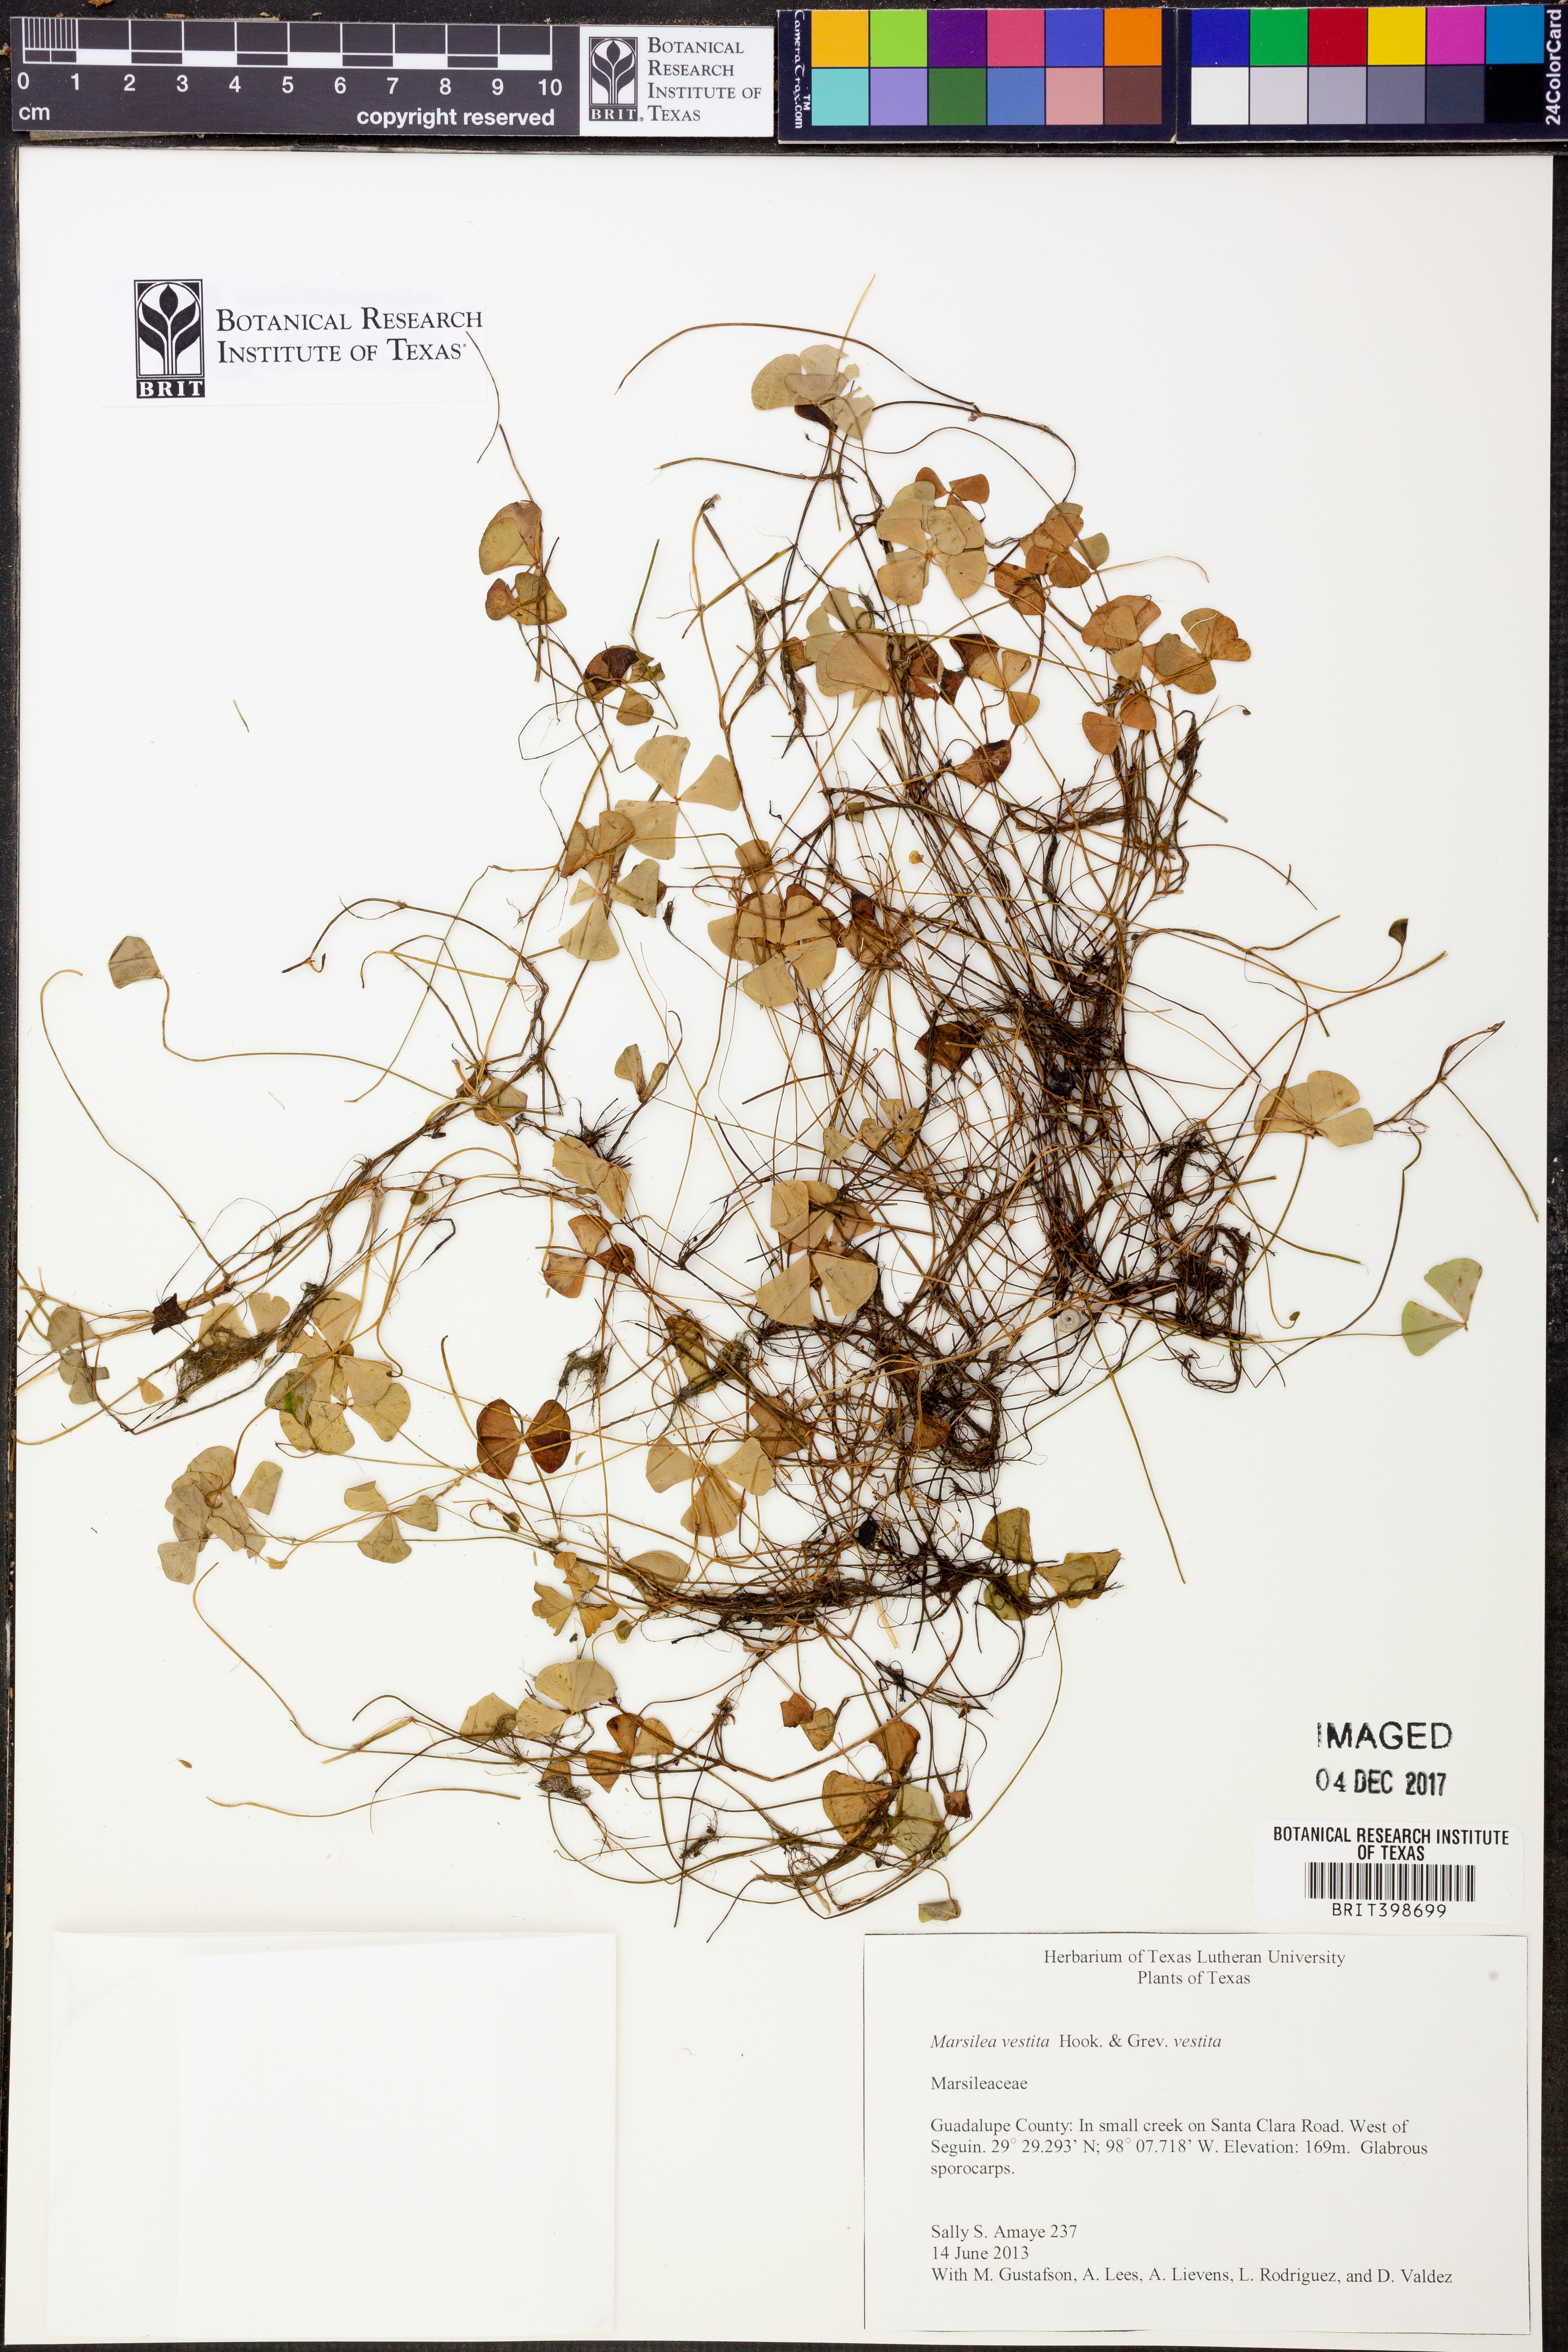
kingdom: Plantae
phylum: Tracheophyta
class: Polypodiopsida
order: Salviniales
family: Marsileaceae
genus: Marsilea
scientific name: Marsilea vestita
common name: Hooked-pepperwort
